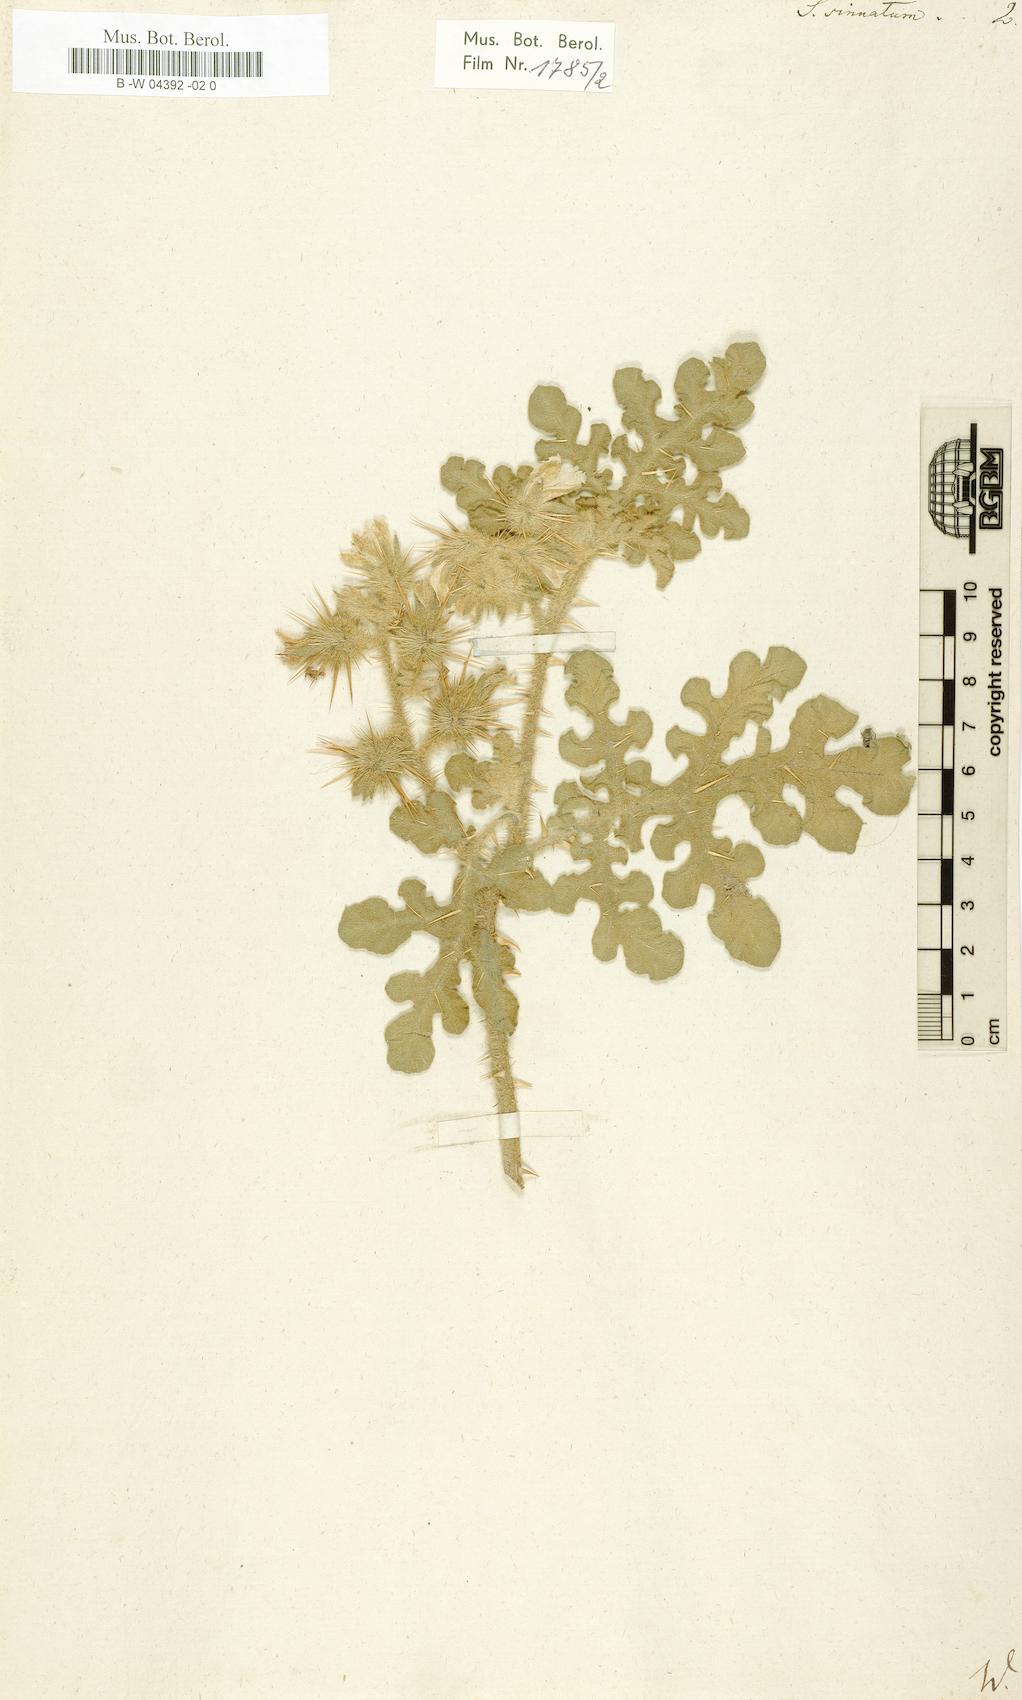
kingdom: Plantae
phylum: Tracheophyta
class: Magnoliopsida
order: Solanales
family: Solanaceae
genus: Solanum
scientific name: Solanum
